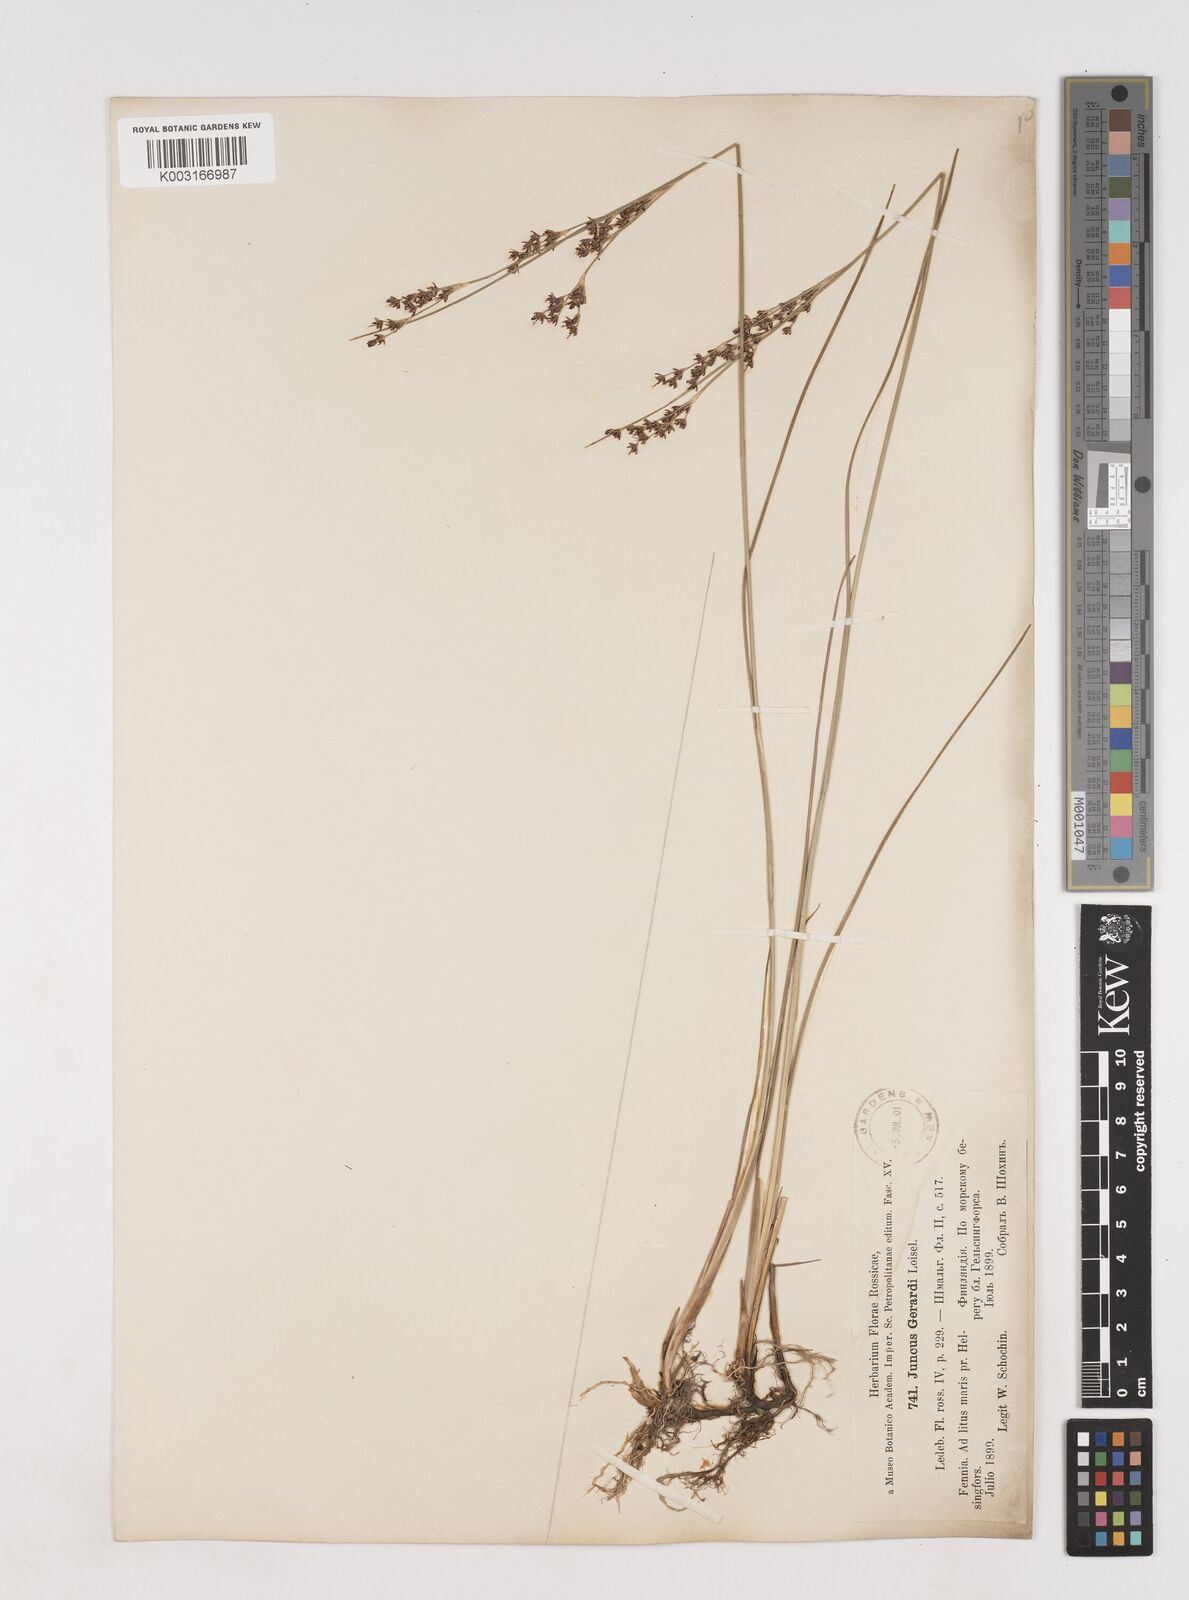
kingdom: Plantae
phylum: Tracheophyta
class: Liliopsida
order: Poales
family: Juncaceae
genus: Juncus
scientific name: Juncus gerardi
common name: Saltmarsh rush
